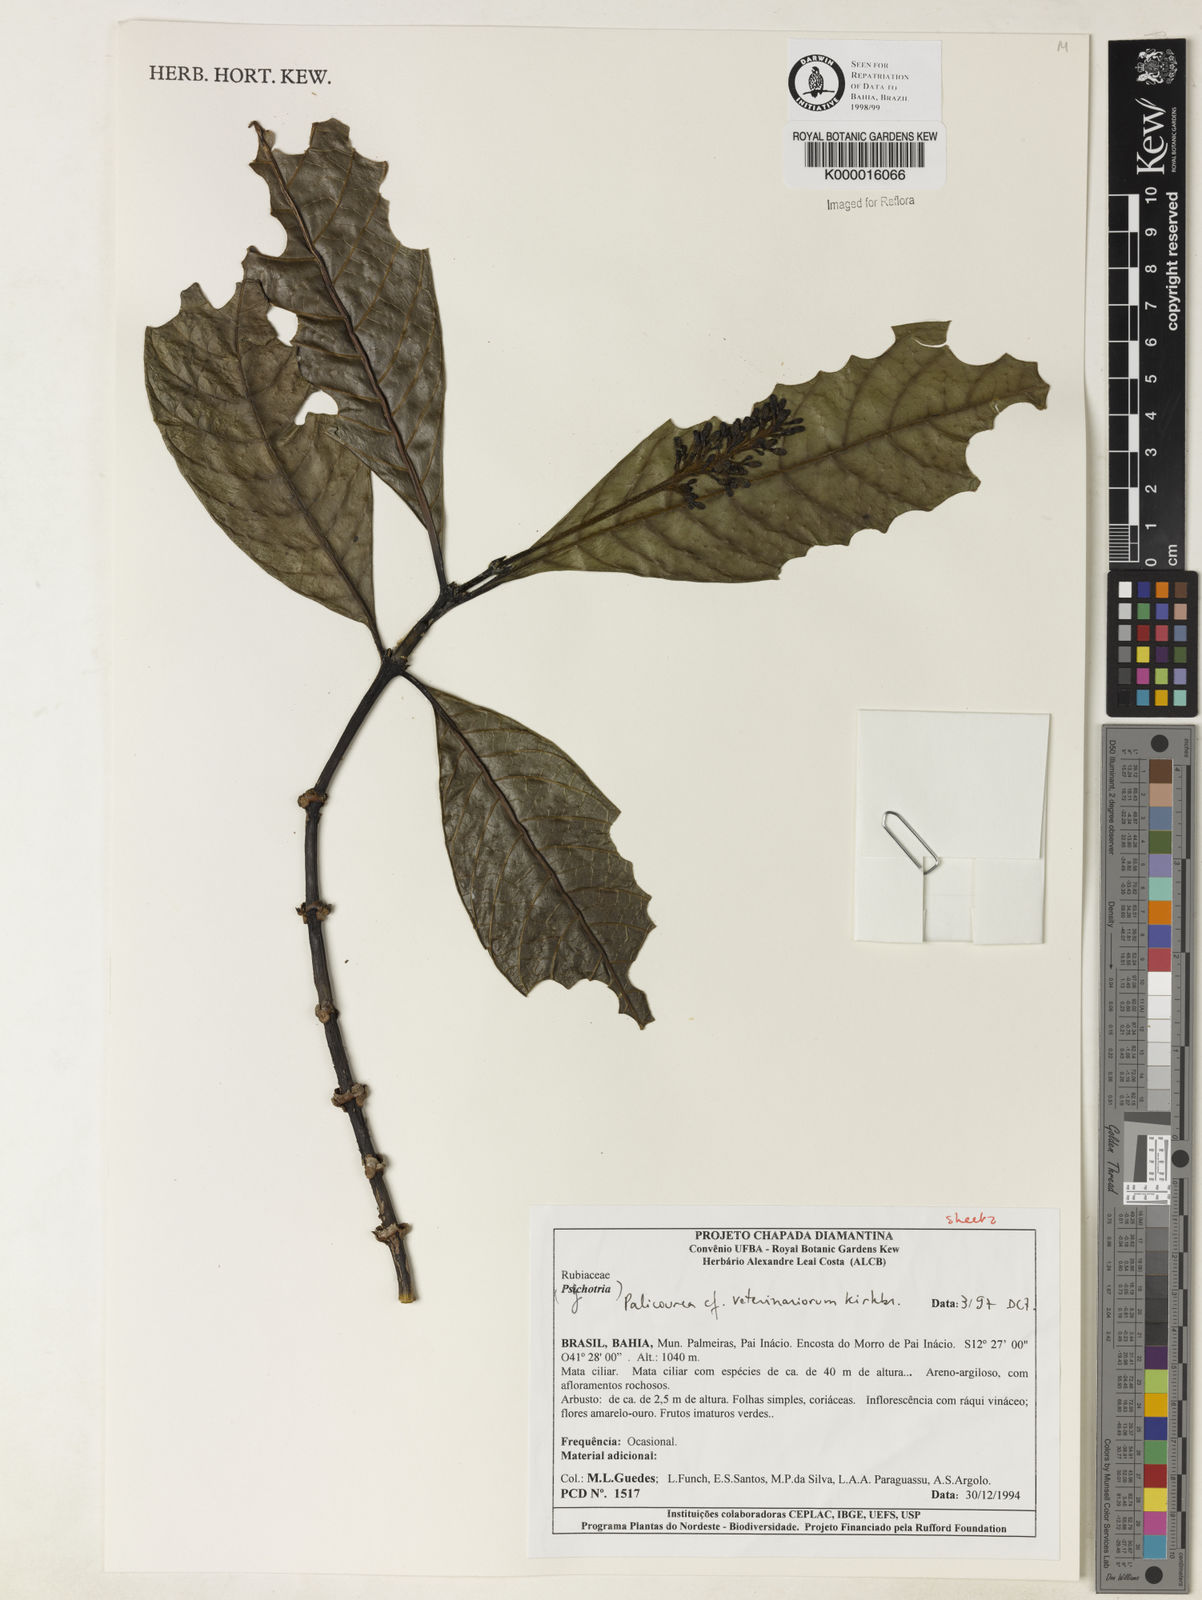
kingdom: Plantae
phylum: Tracheophyta
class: Magnoliopsida
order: Gentianales
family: Rubiaceae
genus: Palicourea
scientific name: Palicourea veterinariorum
